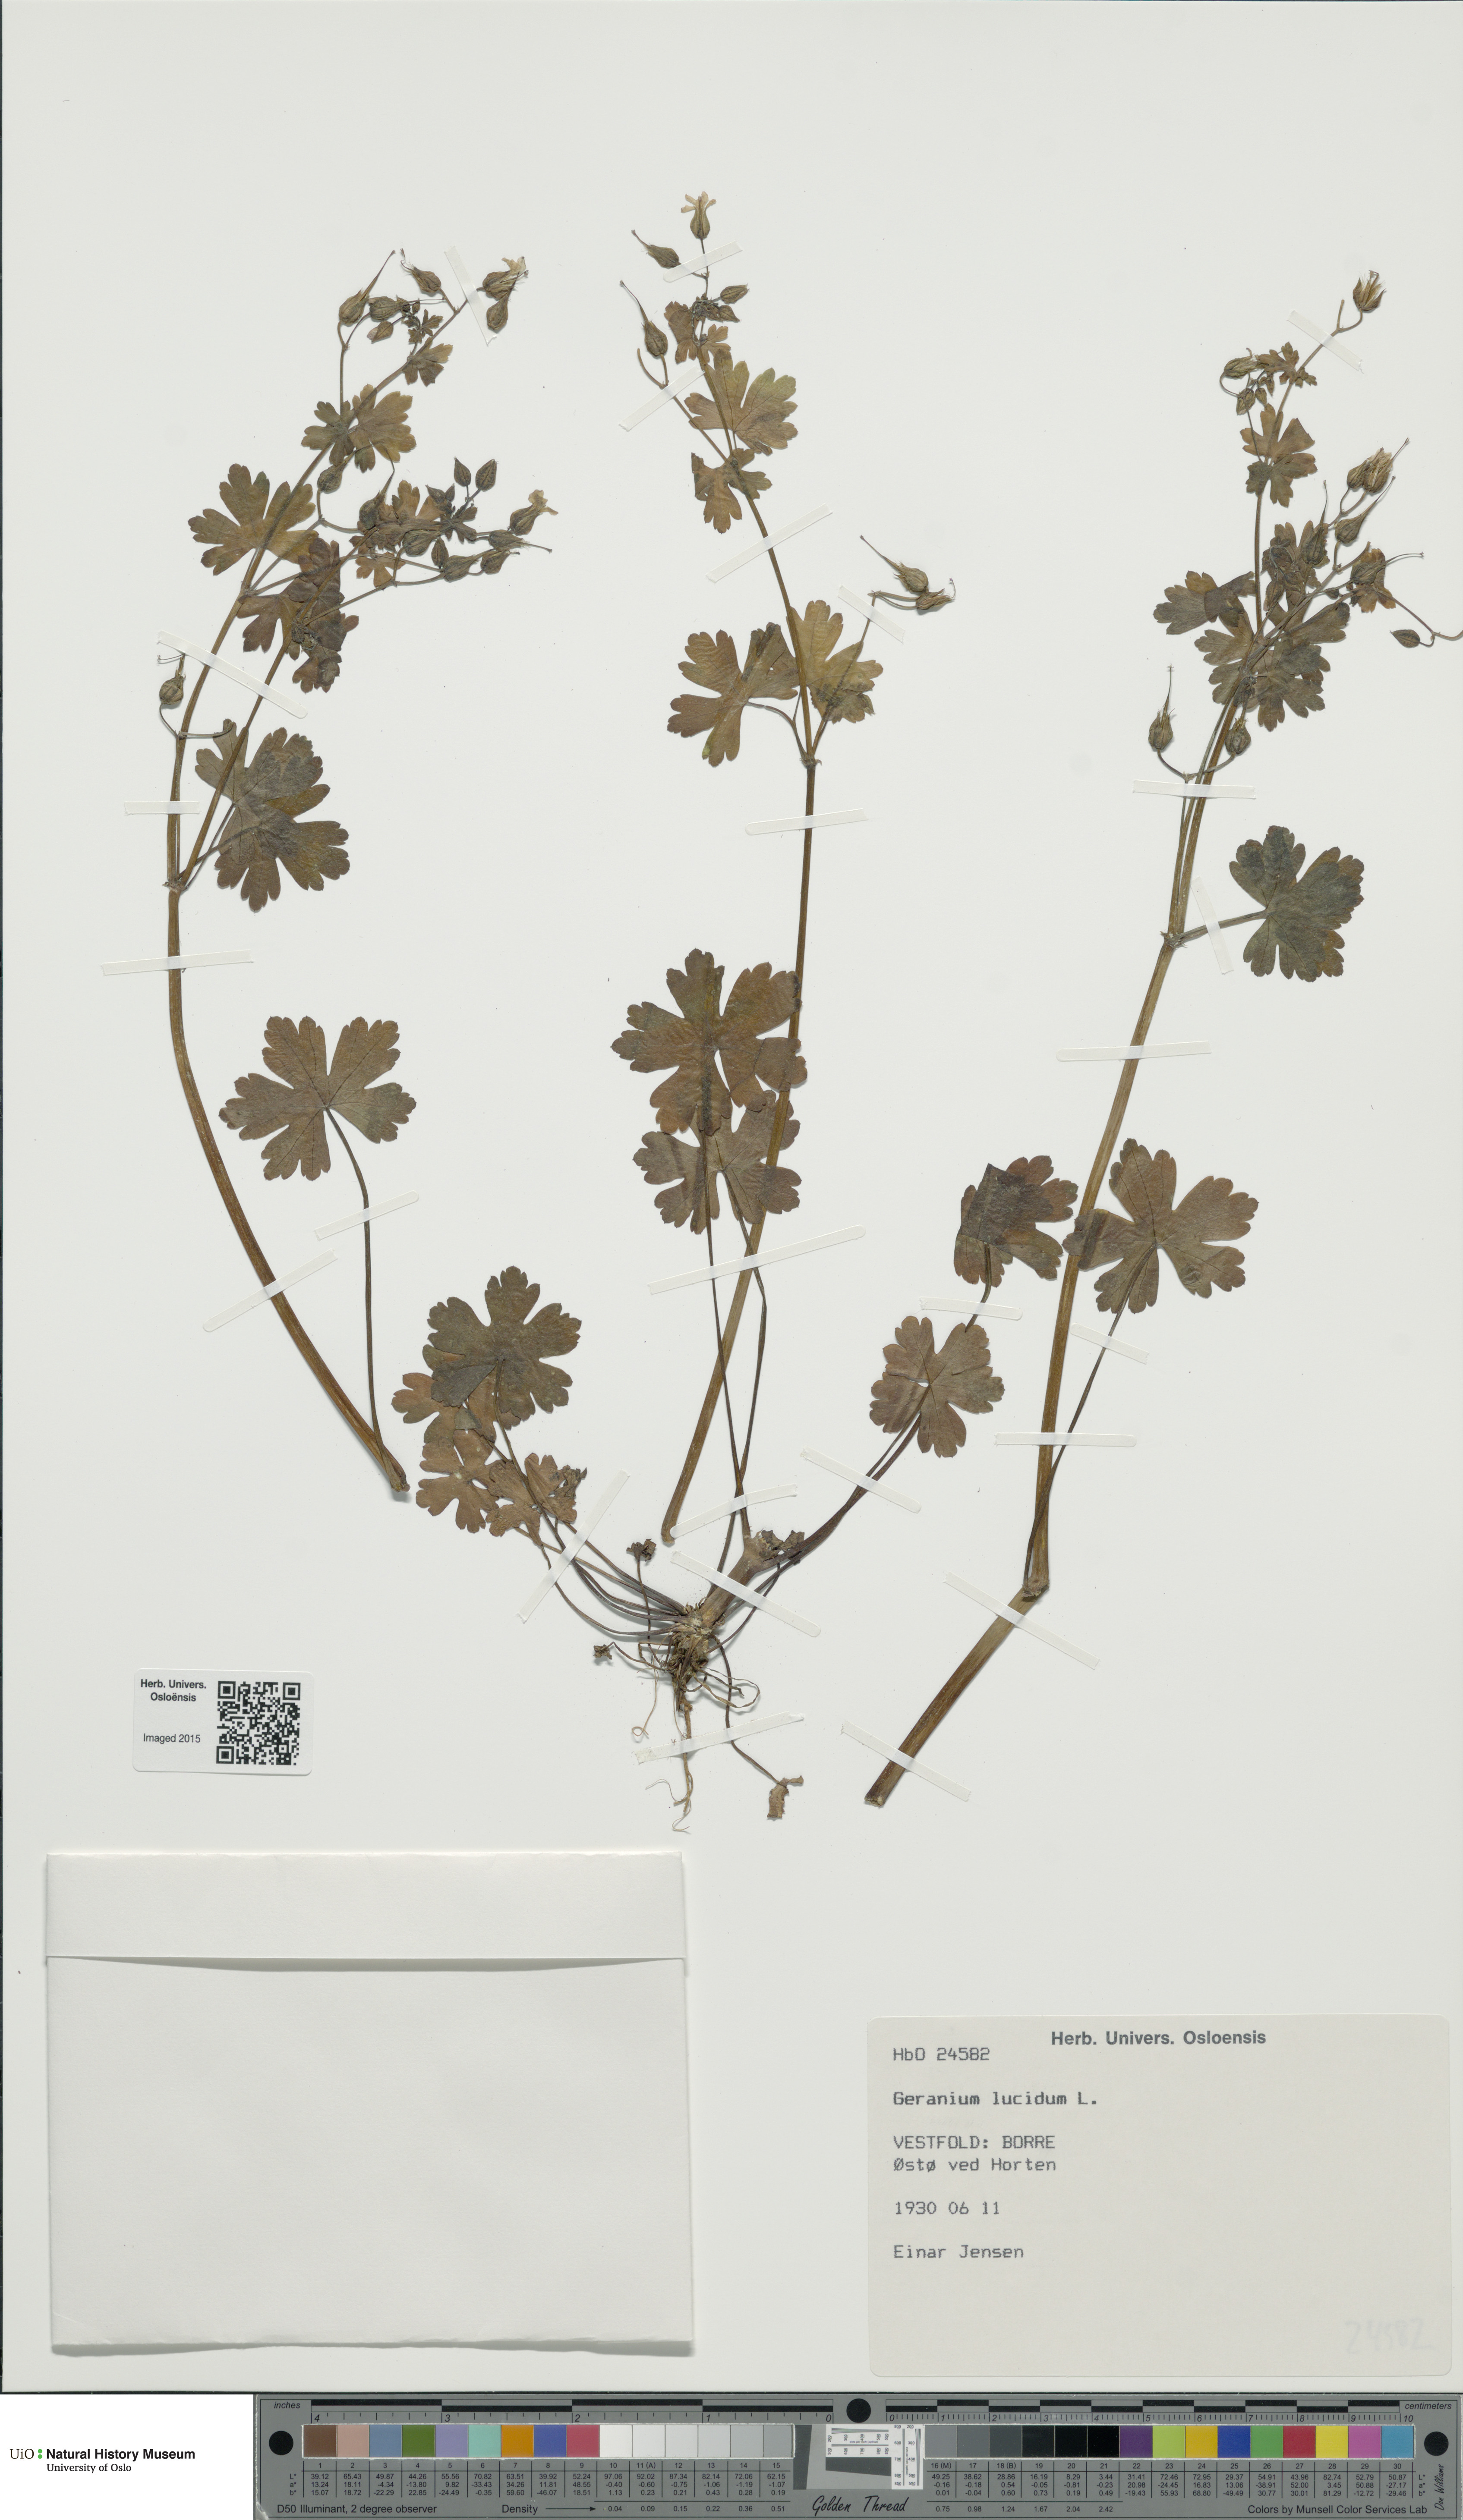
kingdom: Plantae
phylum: Tracheophyta
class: Magnoliopsida
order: Geraniales
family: Geraniaceae
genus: Geranium
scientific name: Geranium lucidum
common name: Shining crane's-bill
